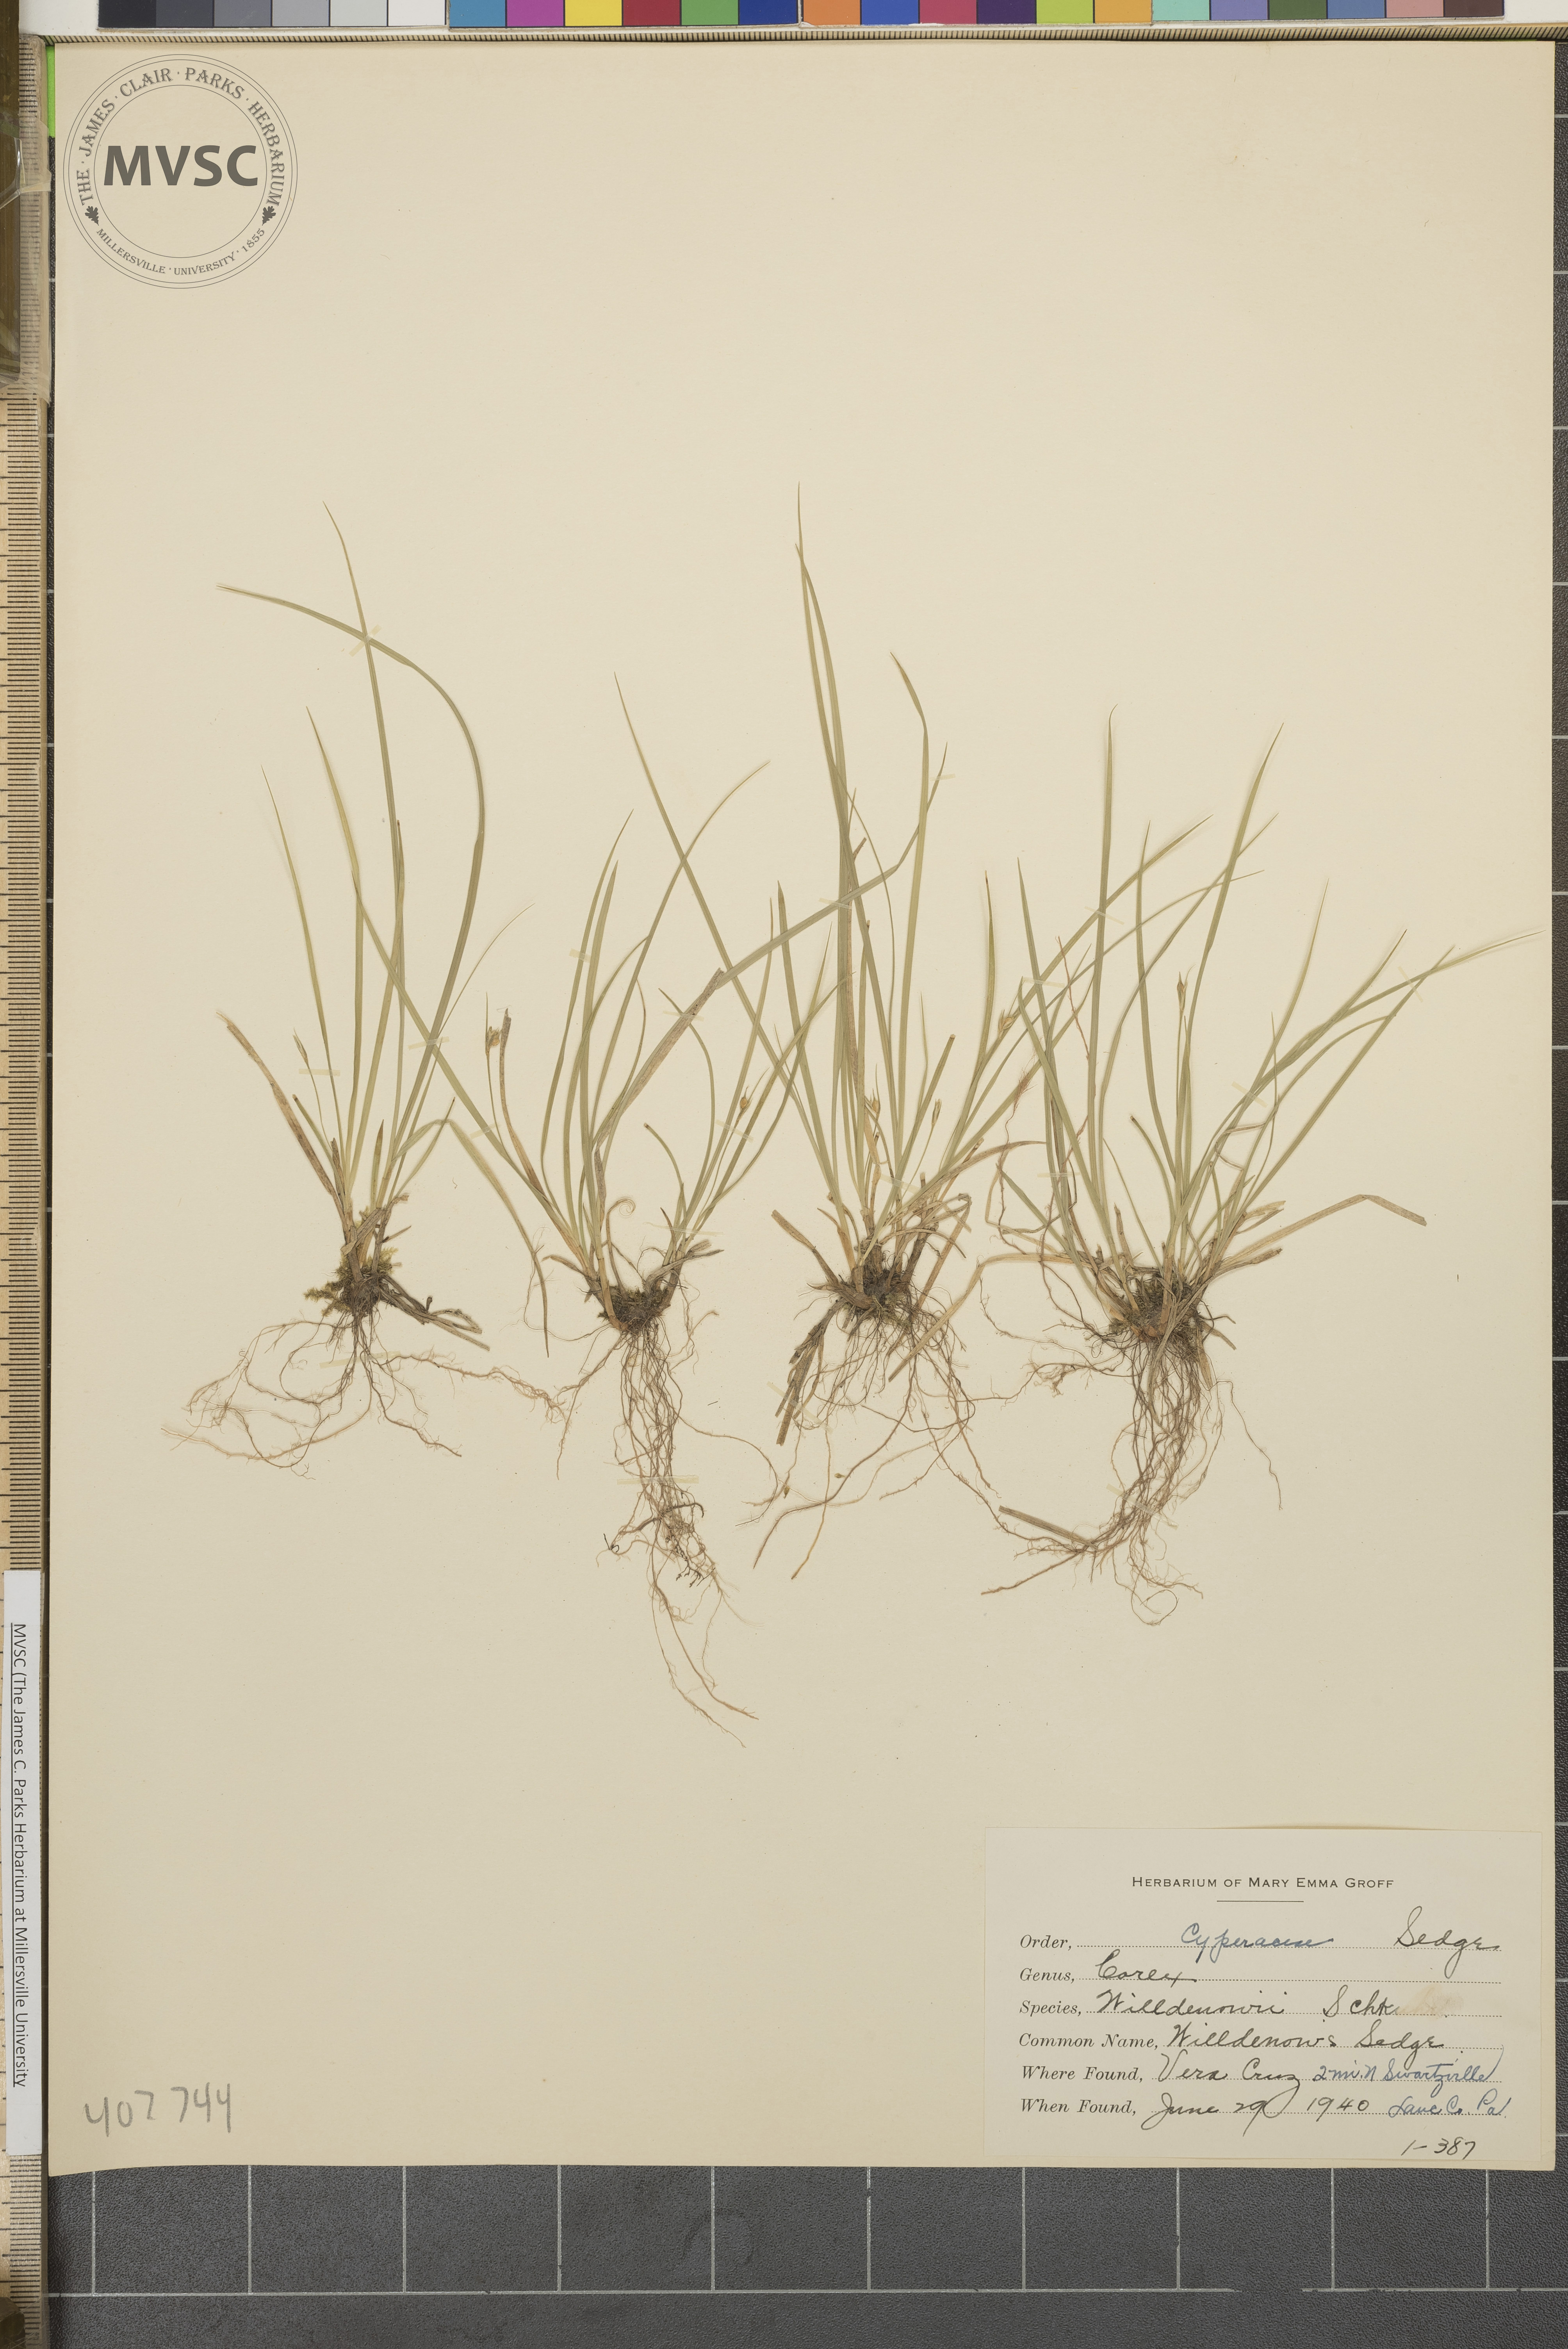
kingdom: Plantae
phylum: Tracheophyta
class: Liliopsida
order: Poales
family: Cyperaceae
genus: Carex
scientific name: Carex willdenowii
